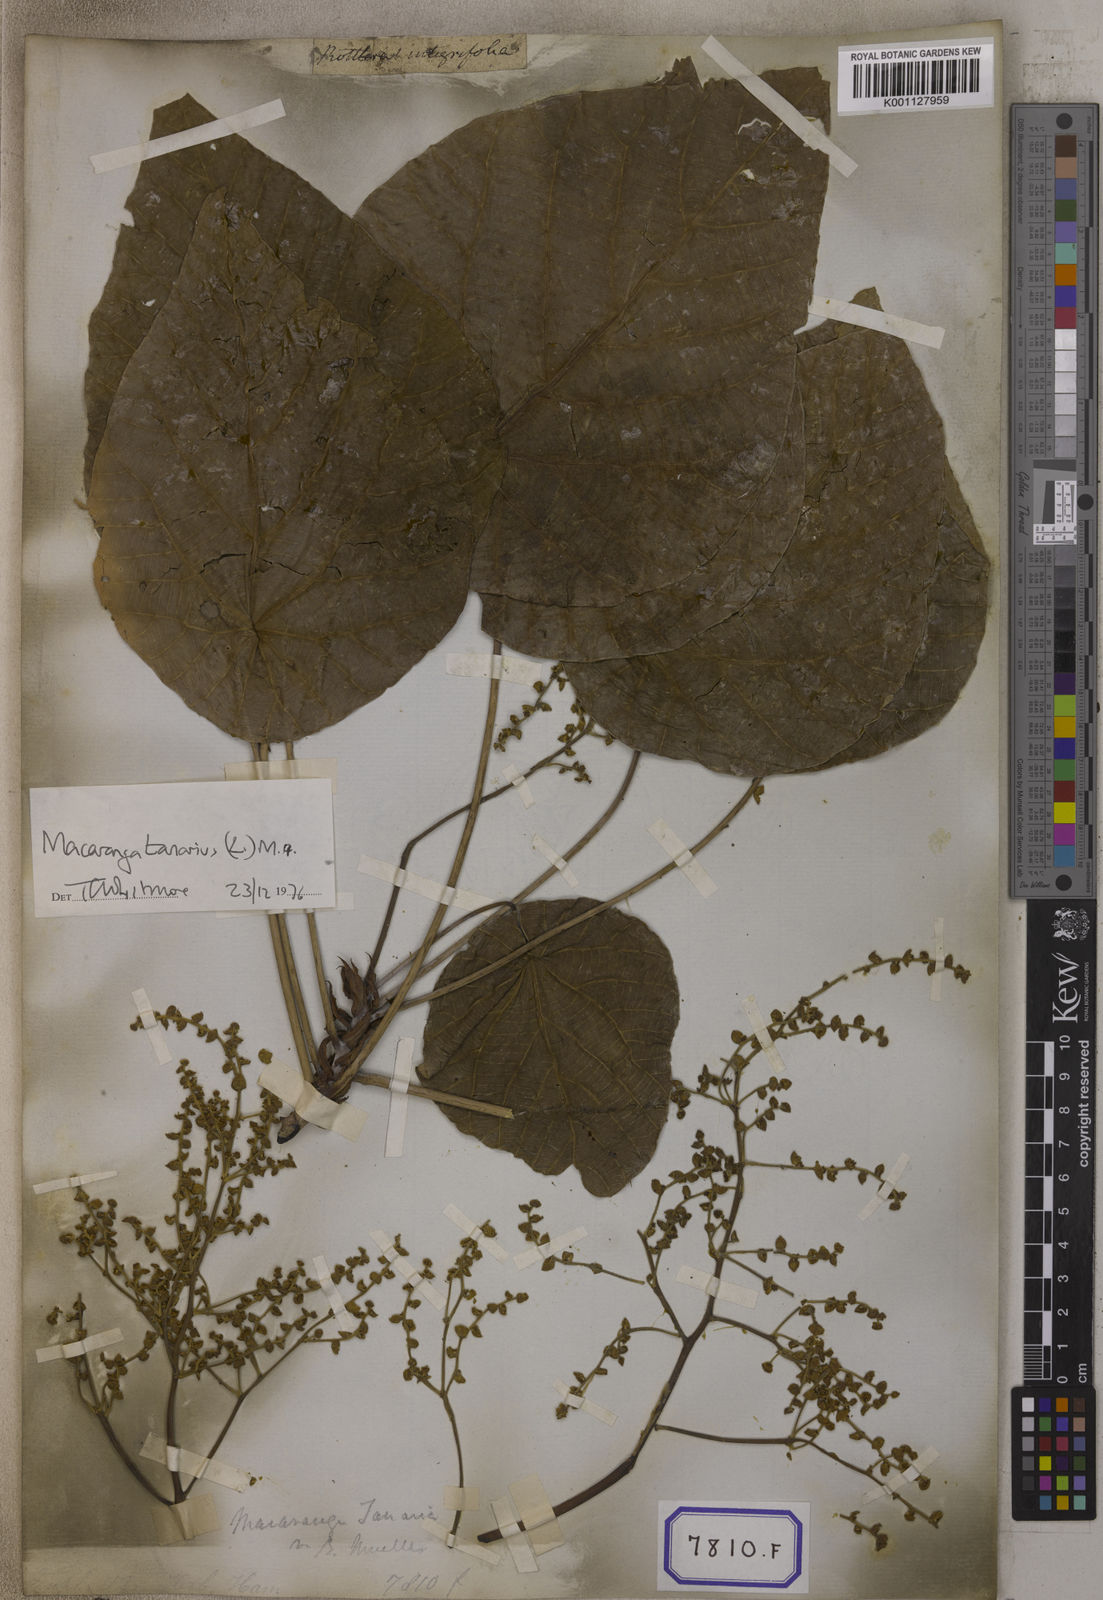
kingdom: Plantae
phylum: Tracheophyta
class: Magnoliopsida
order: Malpighiales
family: Euphorbiaceae
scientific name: Euphorbiaceae
